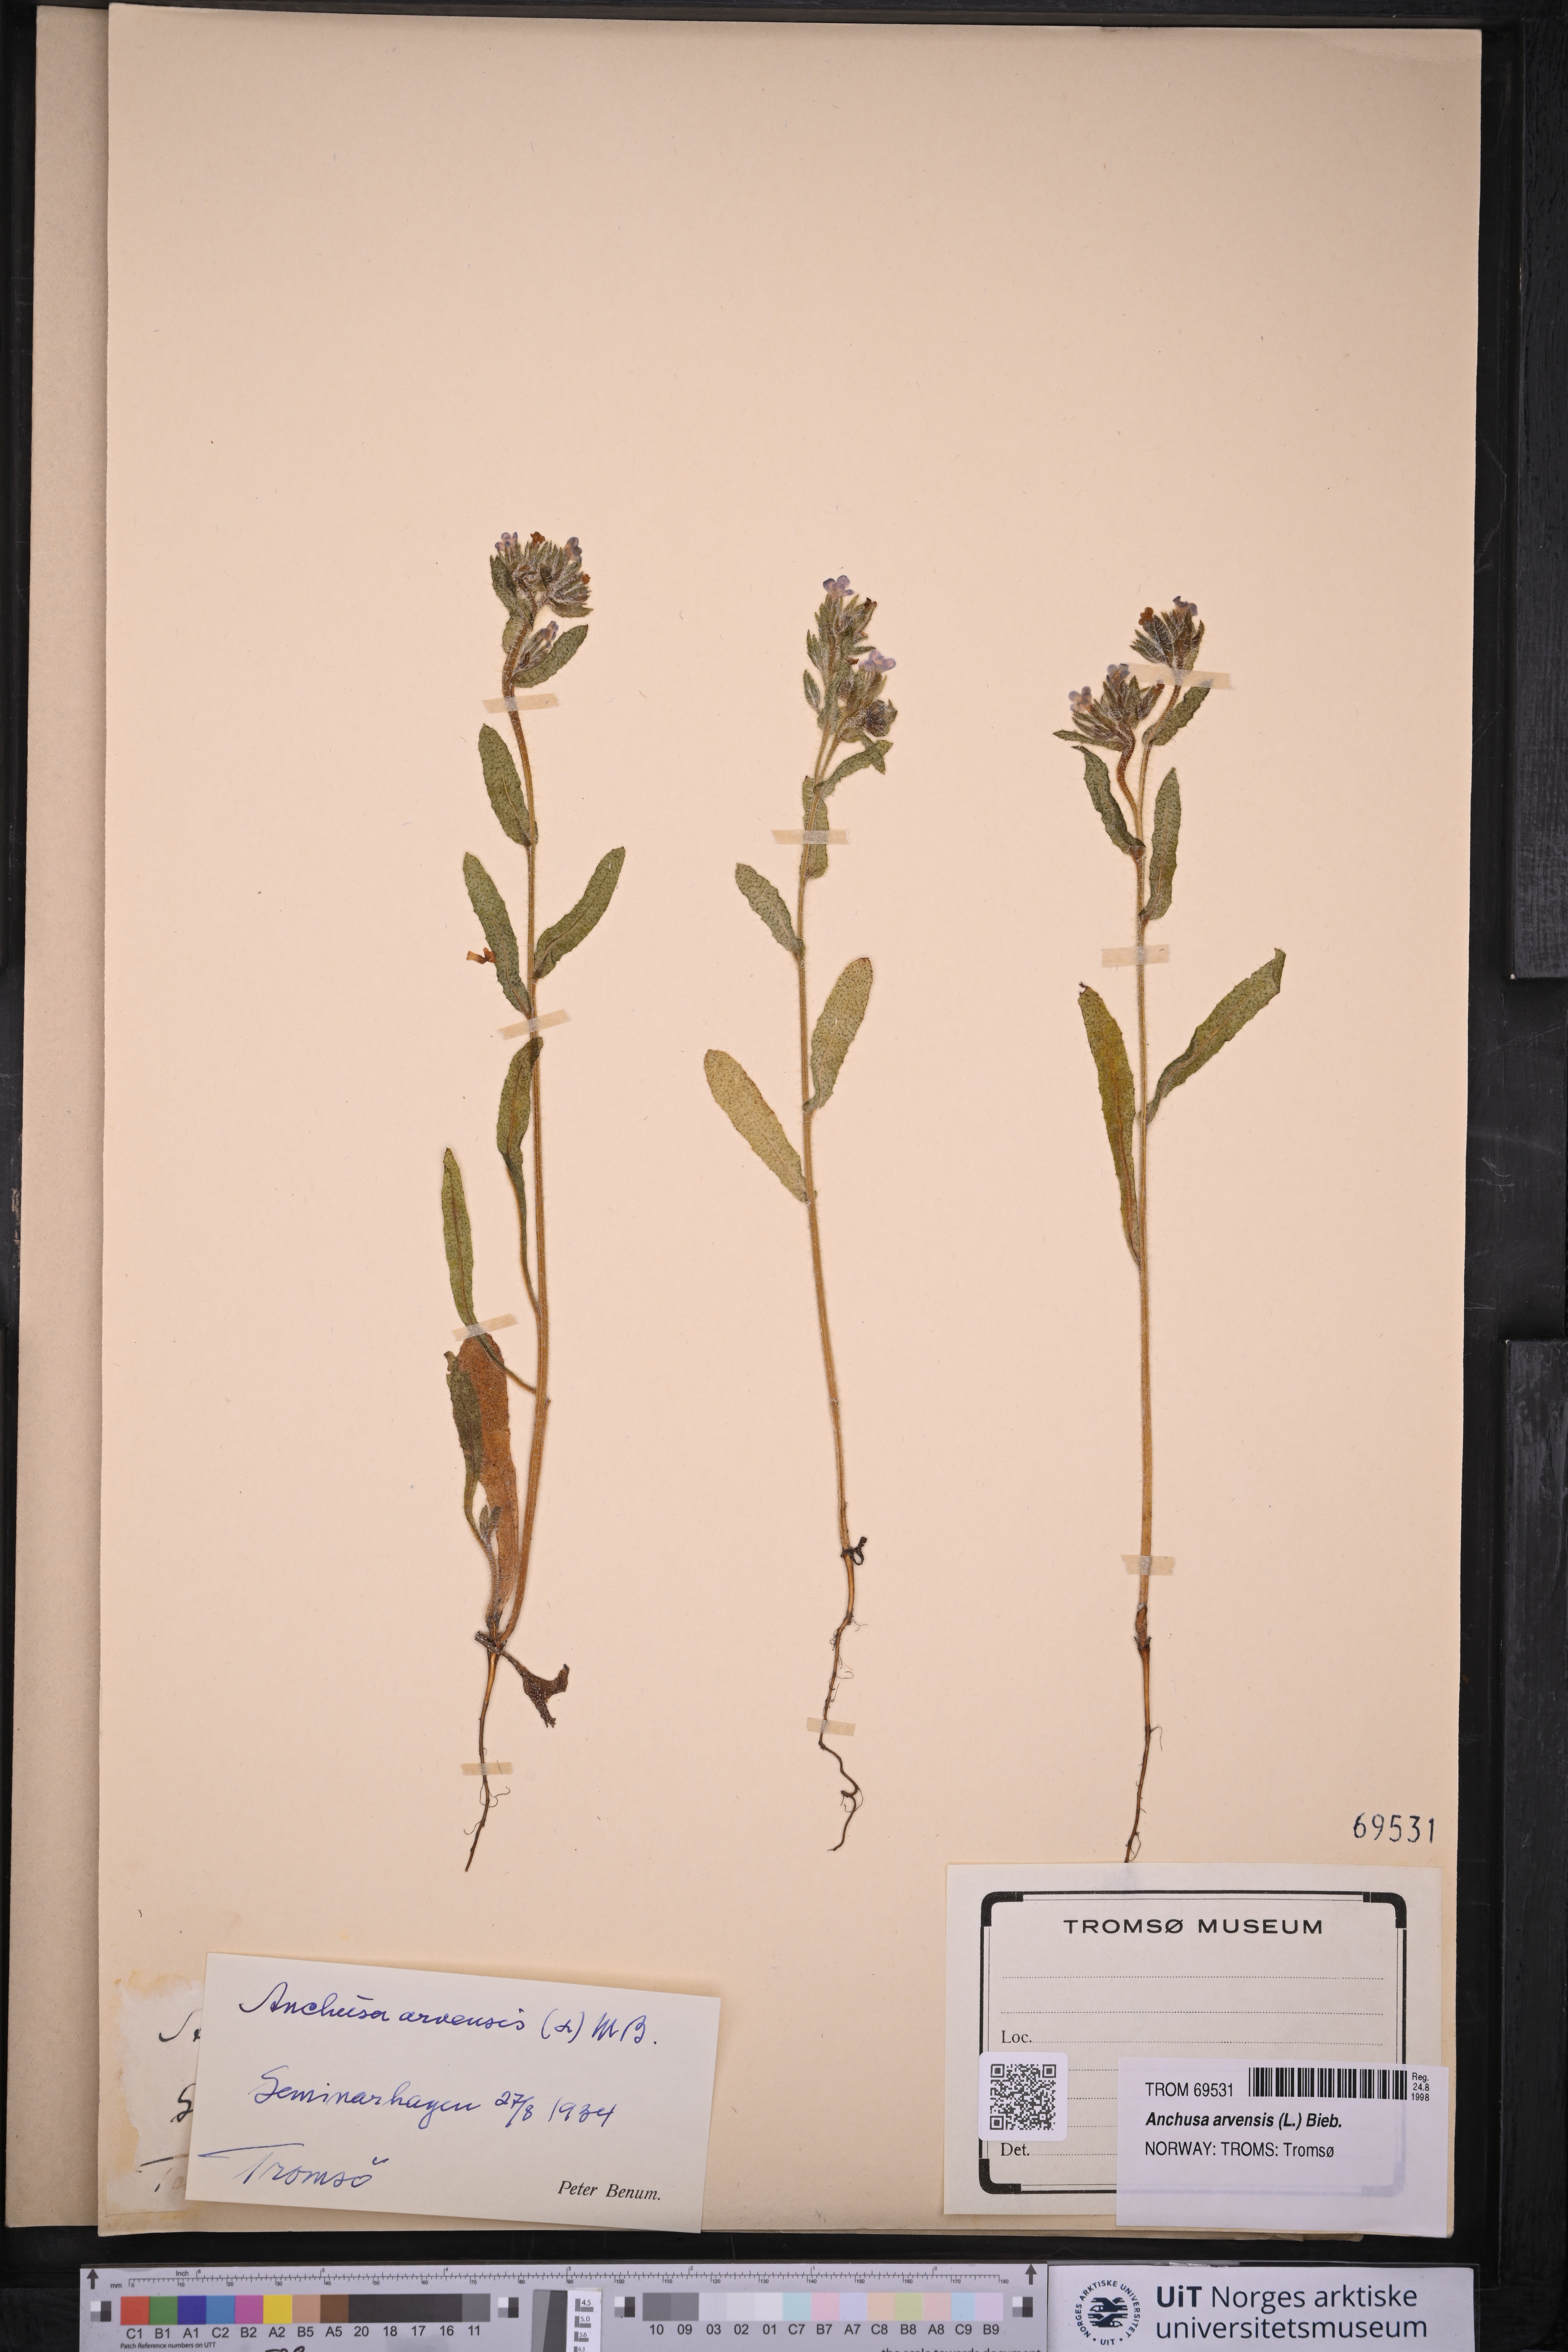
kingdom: Plantae
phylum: Tracheophyta
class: Magnoliopsida
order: Boraginales
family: Boraginaceae
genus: Lycopsis
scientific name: Lycopsis arvensis
